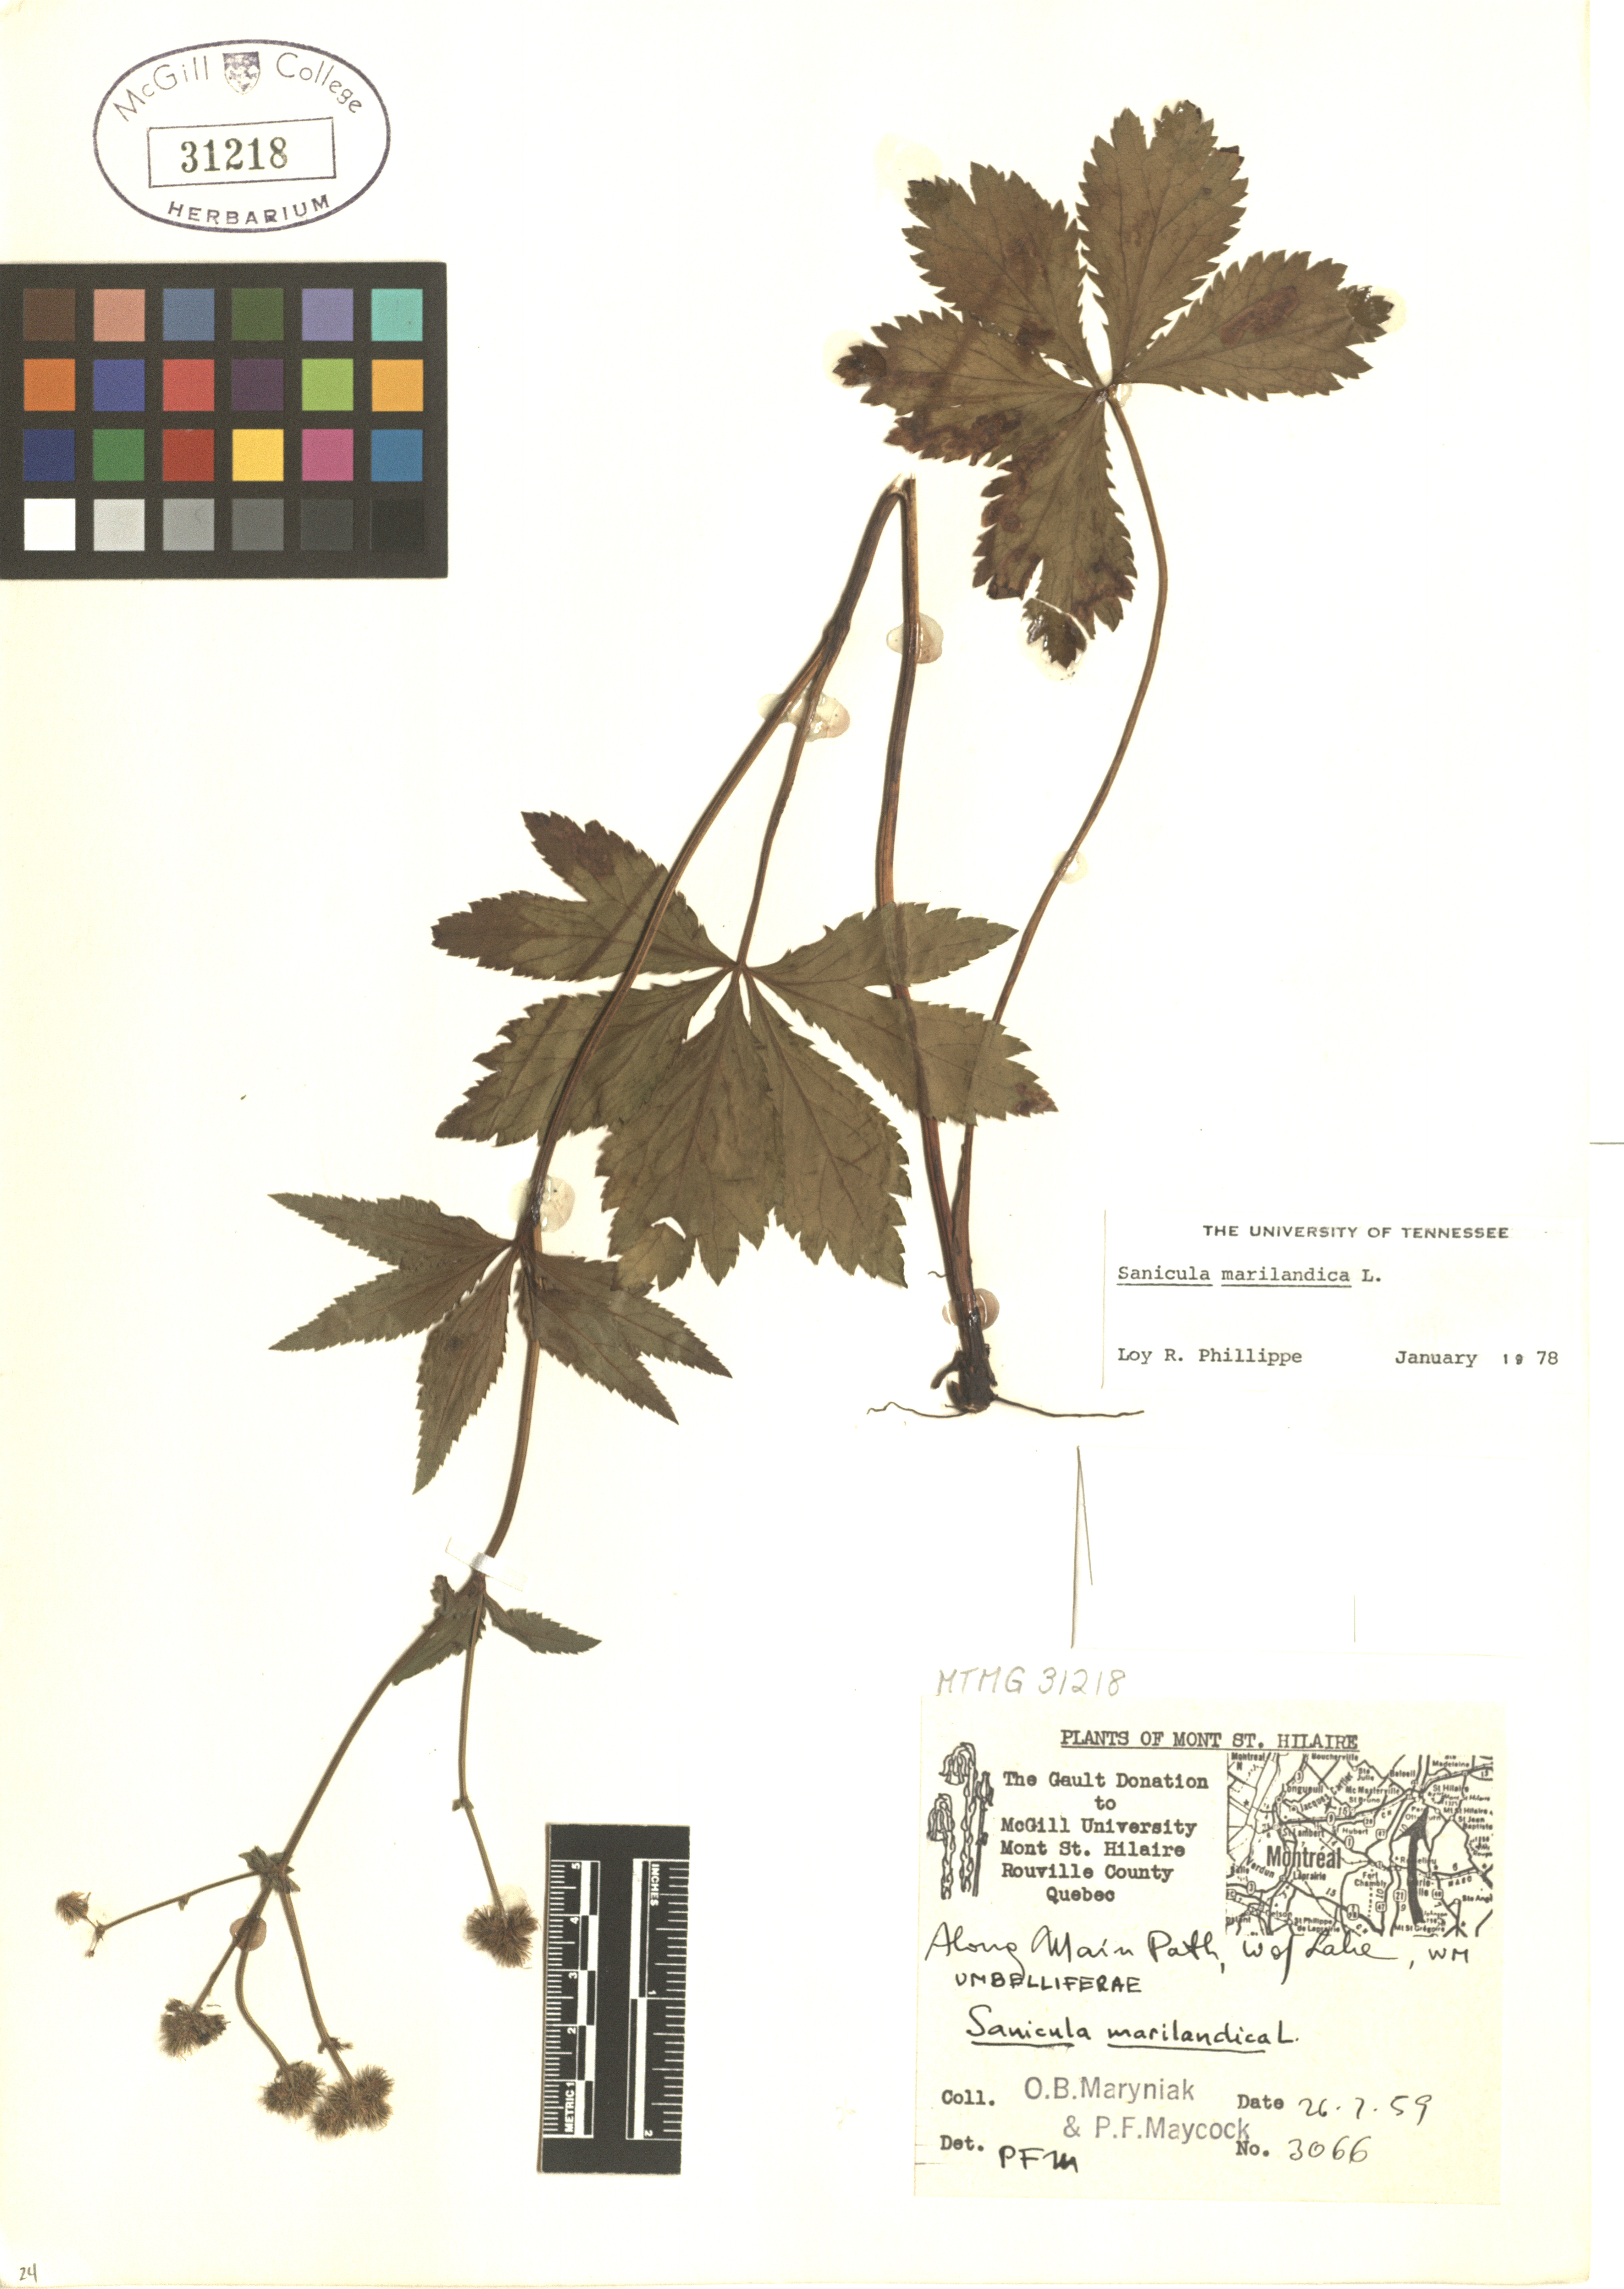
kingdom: Plantae
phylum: Tracheophyta
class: Magnoliopsida
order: Apiales
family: Apiaceae
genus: Sanicula
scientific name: Sanicula marilandica
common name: Black snakeroot
